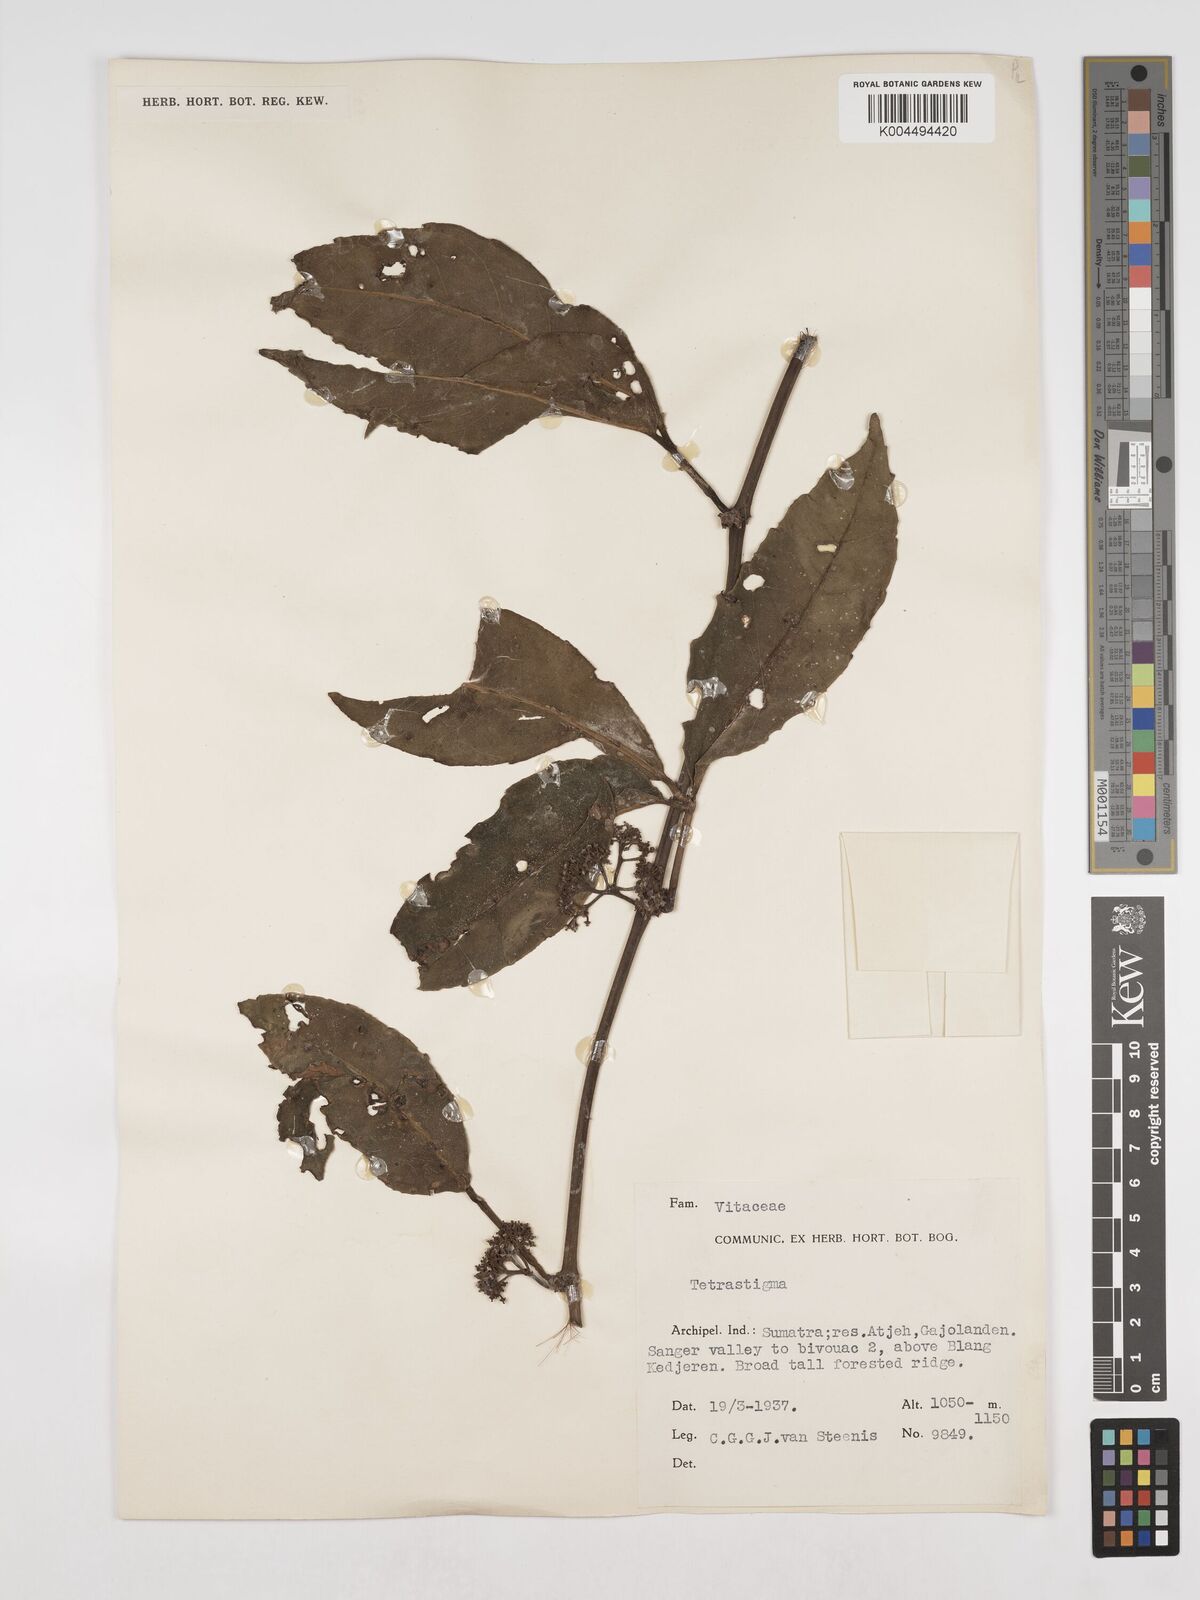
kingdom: Plantae
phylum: Tracheophyta
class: Magnoliopsida
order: Vitales
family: Vitaceae
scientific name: Vitaceae
